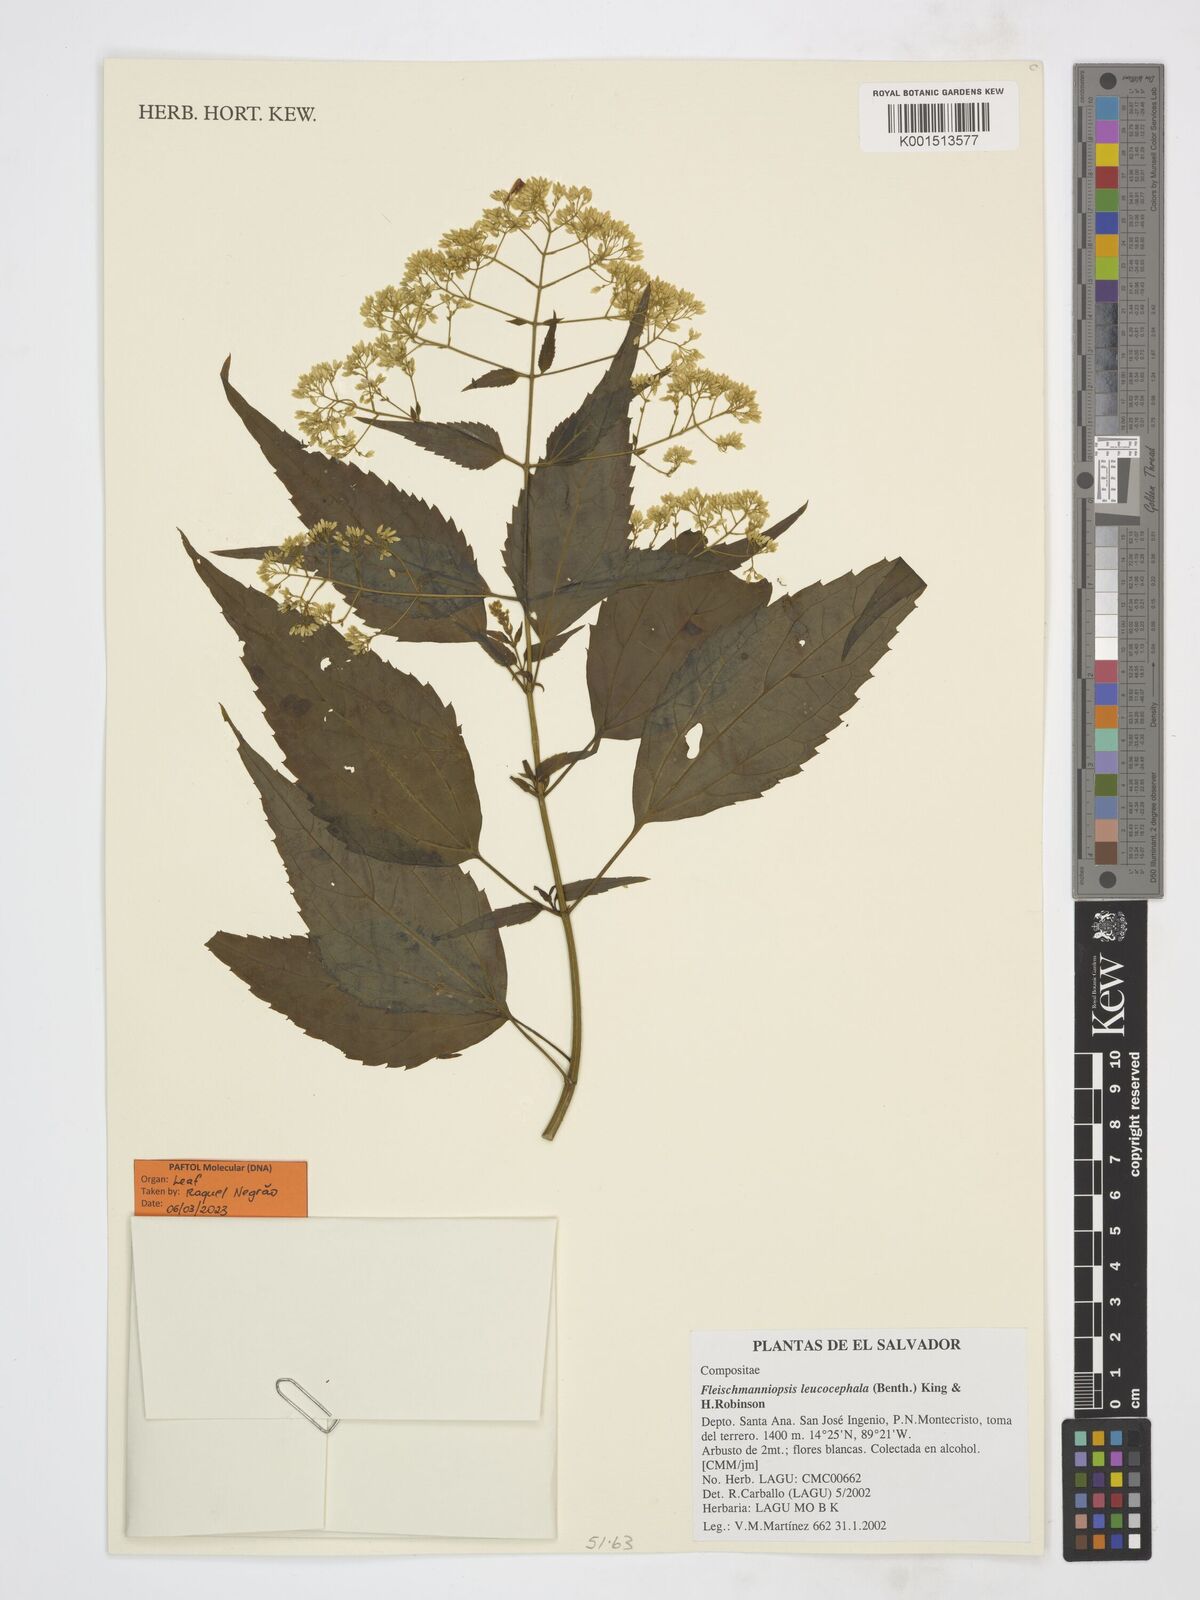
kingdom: Plantae
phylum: Tracheophyta
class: Magnoliopsida
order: Asterales
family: Asteraceae
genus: Fleischmanniopsis
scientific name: Fleischmanniopsis leucocephala
